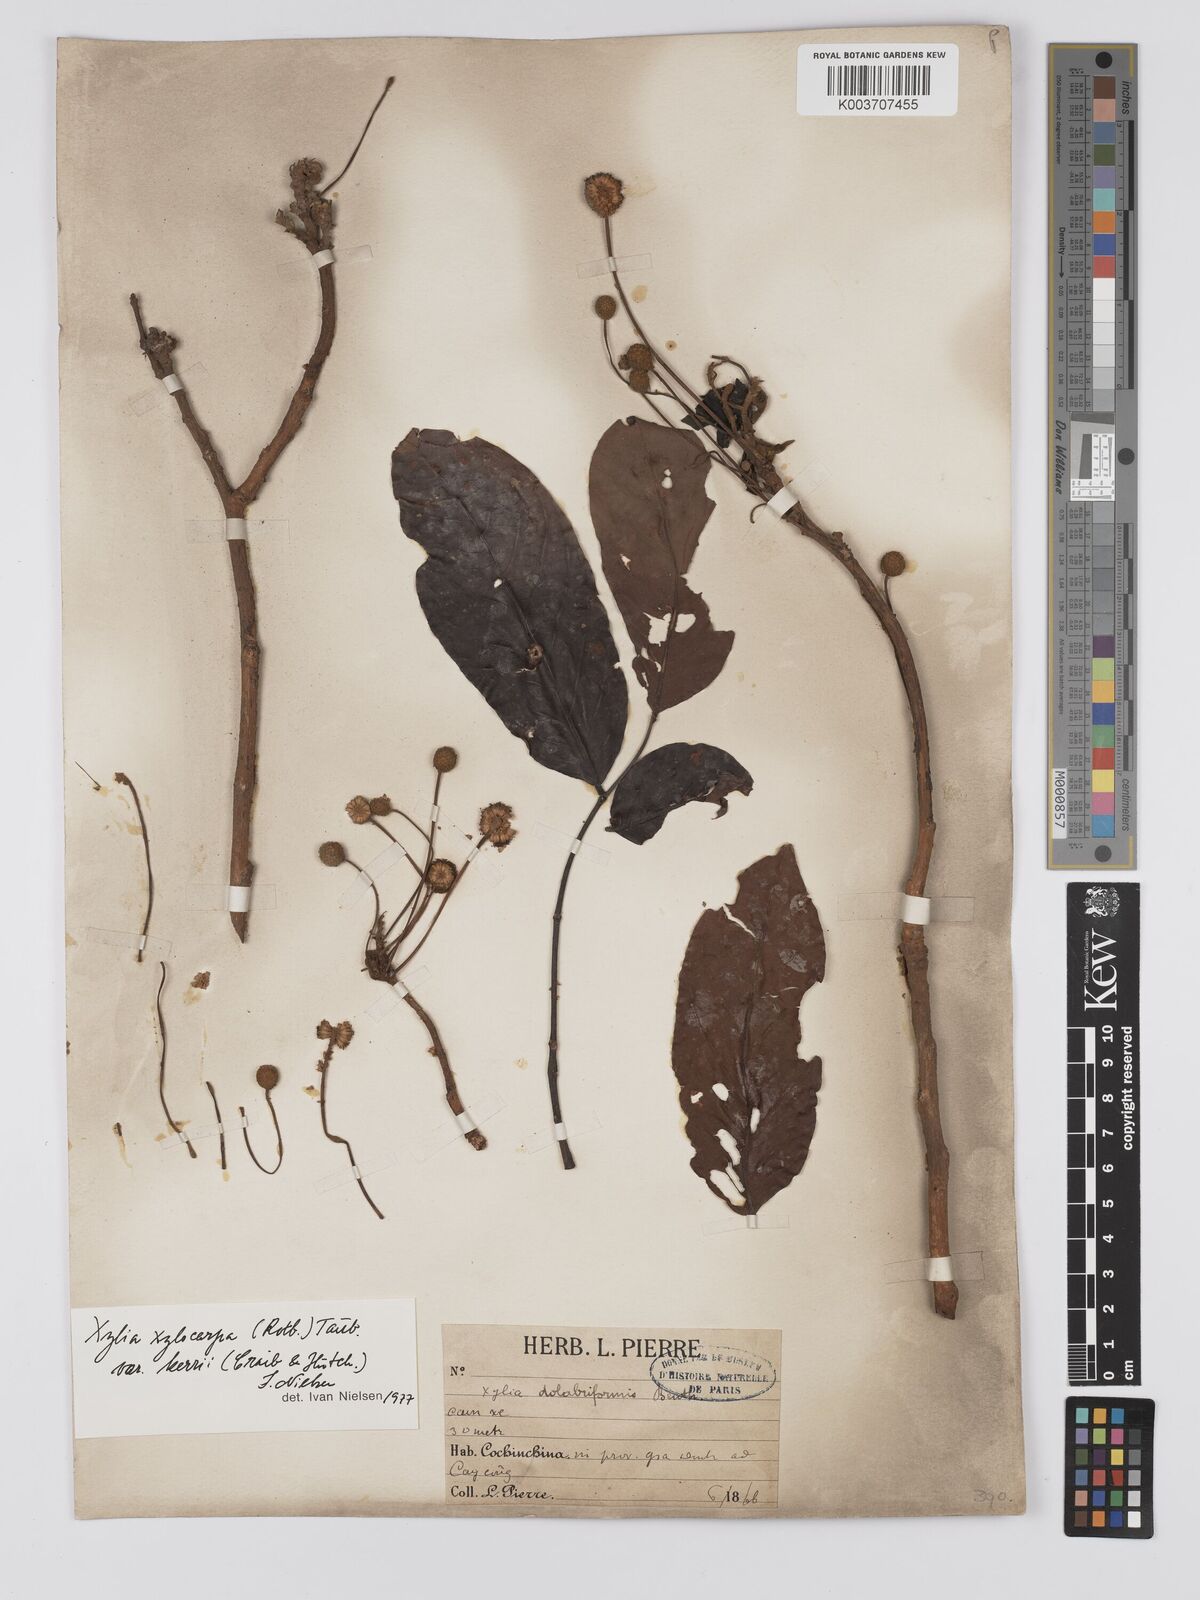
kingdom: Plantae
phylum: Tracheophyta
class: Magnoliopsida
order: Fabales
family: Fabaceae
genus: Xylia
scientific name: Xylia xylocarpa
